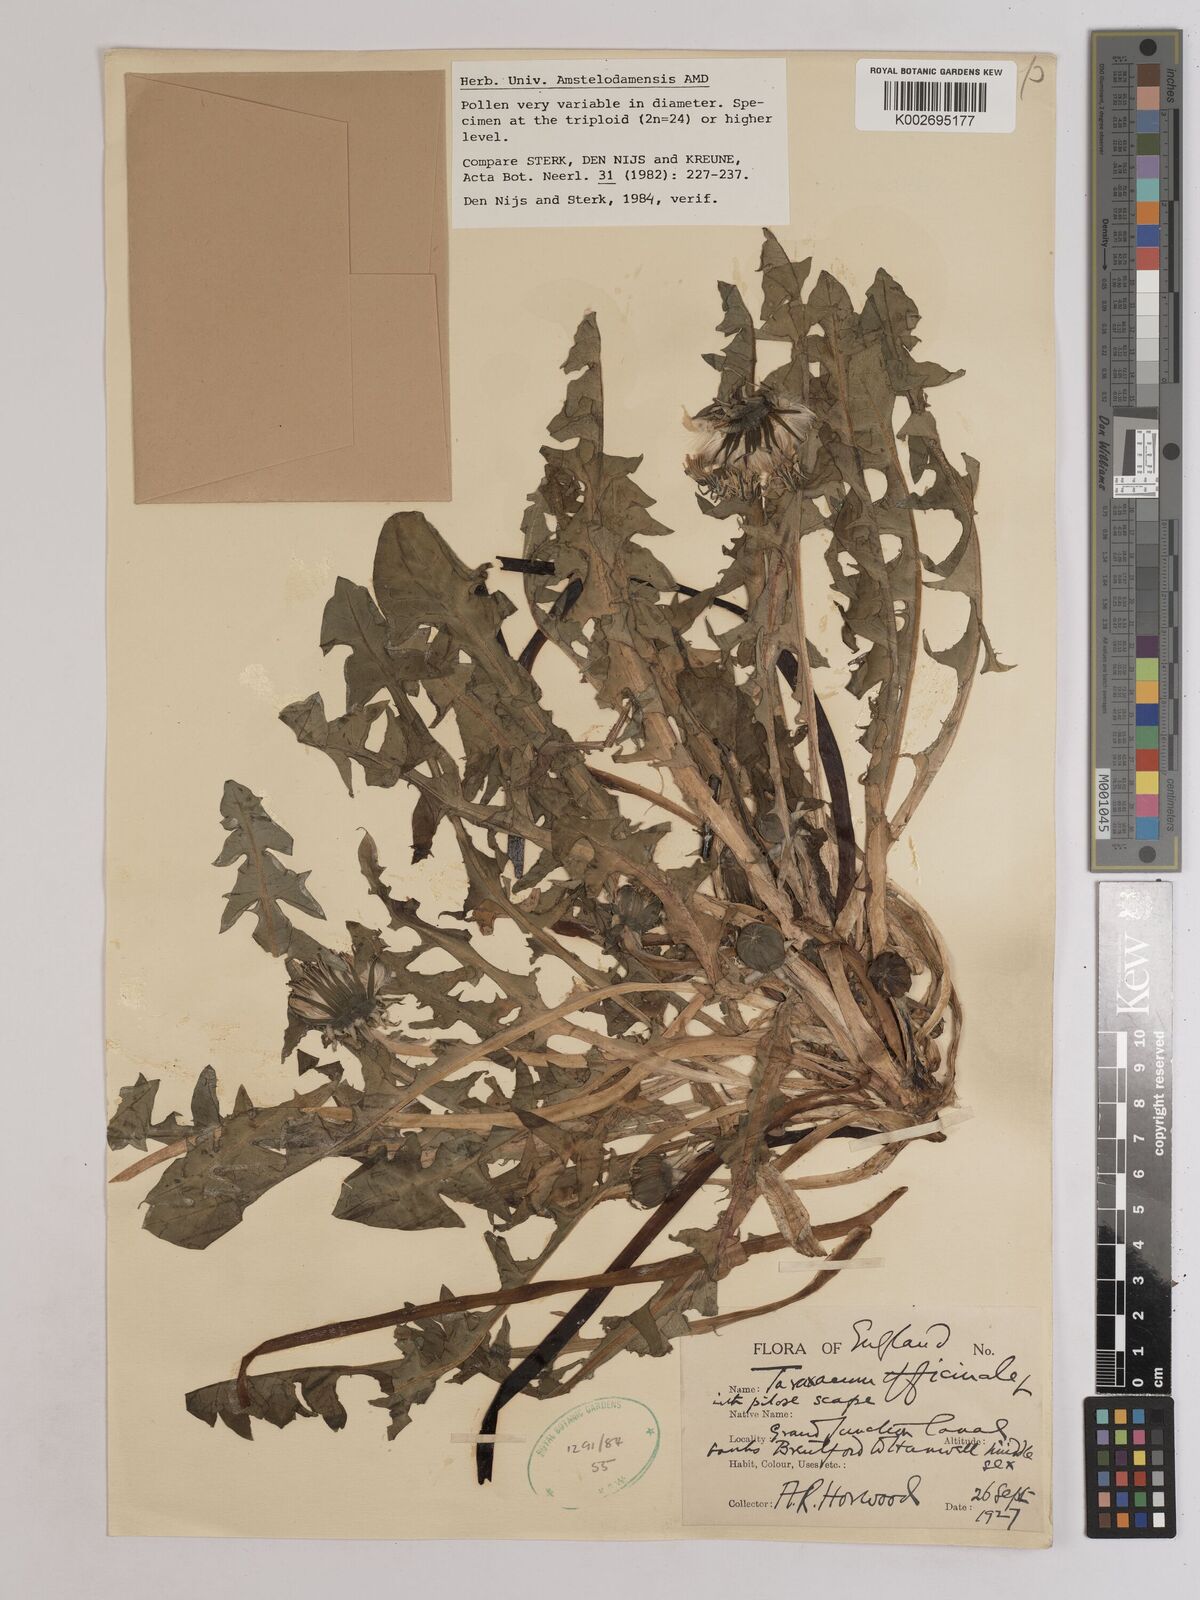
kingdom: Plantae
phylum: Tracheophyta
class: Magnoliopsida
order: Asterales
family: Asteraceae
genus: Taraxacum
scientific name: Taraxacum officinale
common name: Common dandelion
